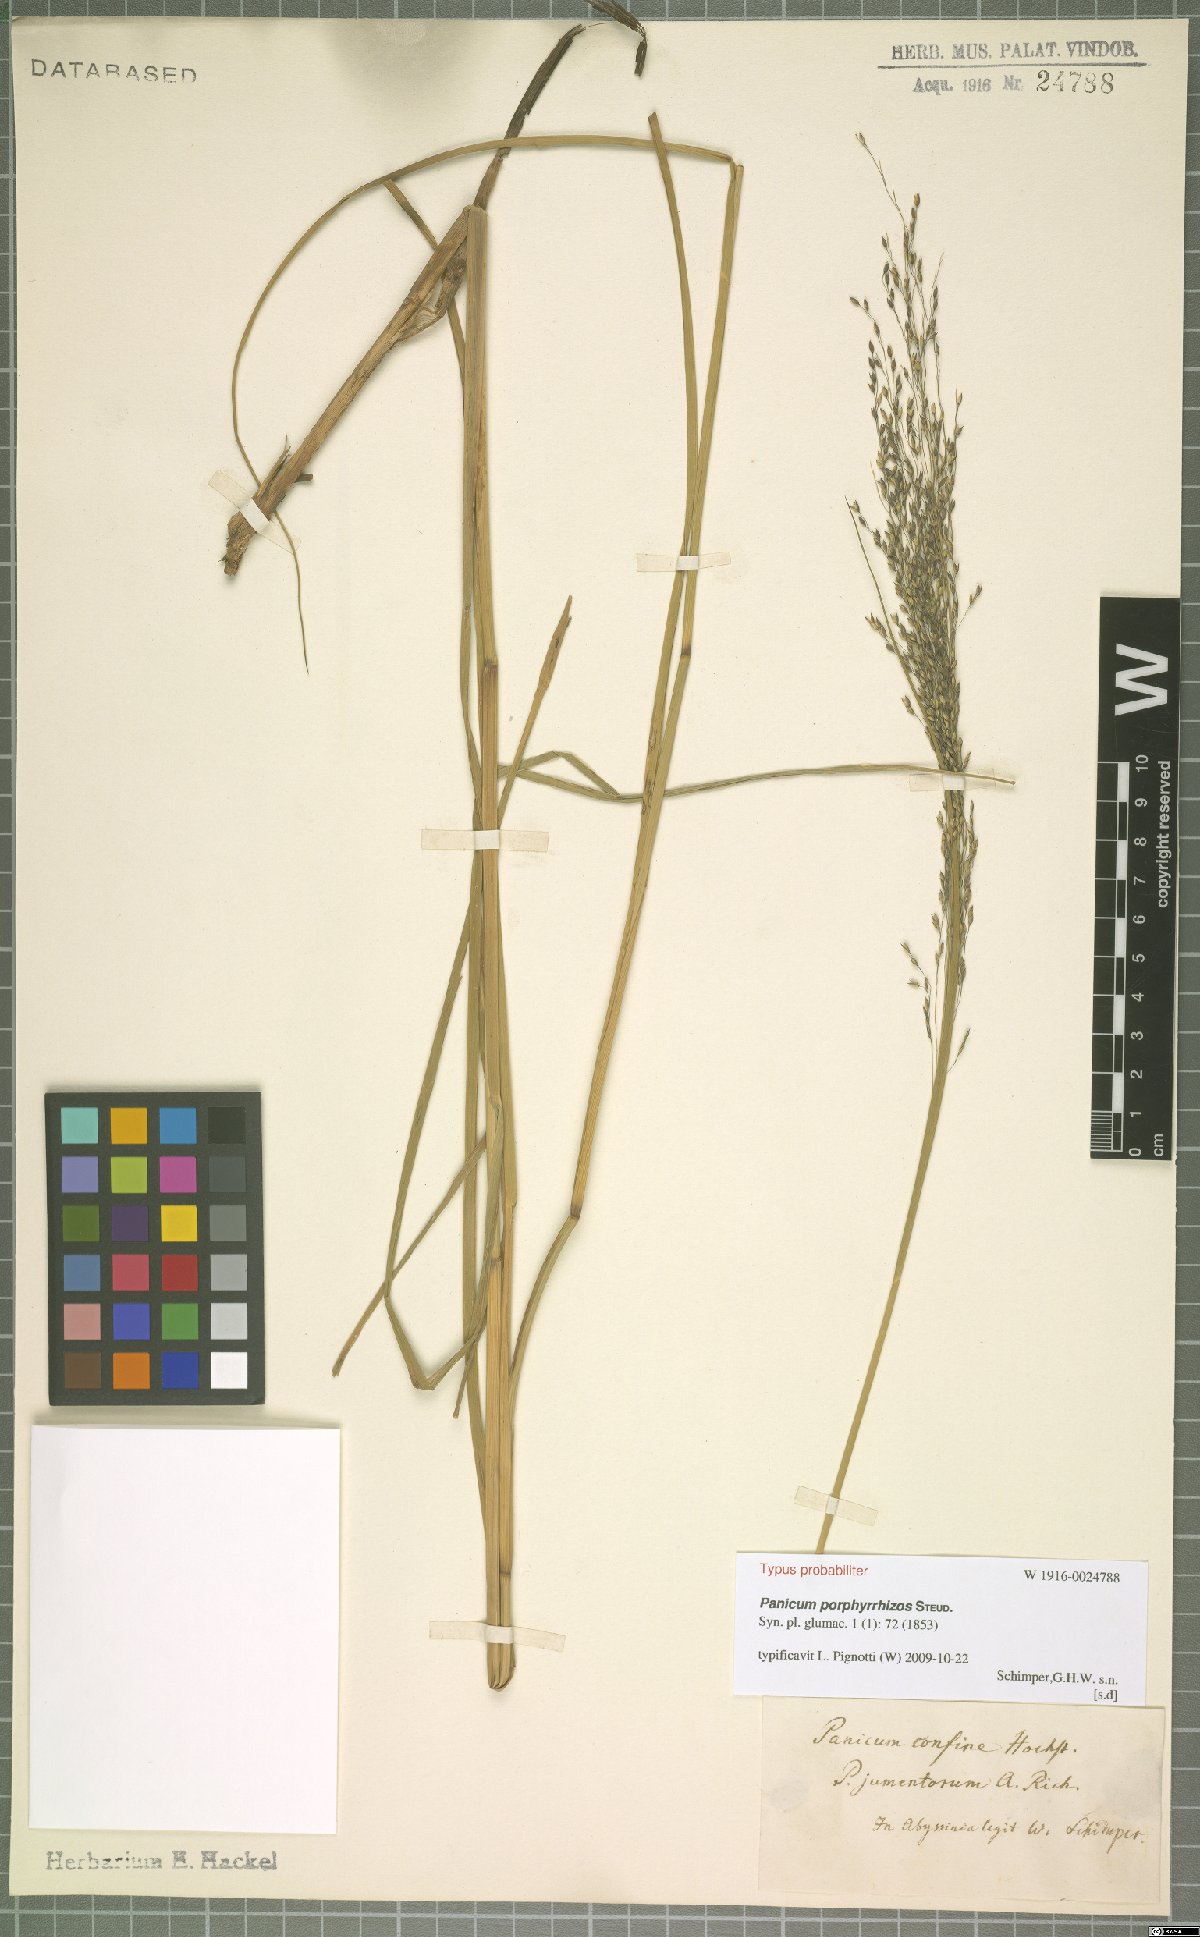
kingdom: Plantae
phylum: Tracheophyta
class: Liliopsida
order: Poales
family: Poaceae
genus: Panicum
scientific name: Panicum porphyrrhizos
